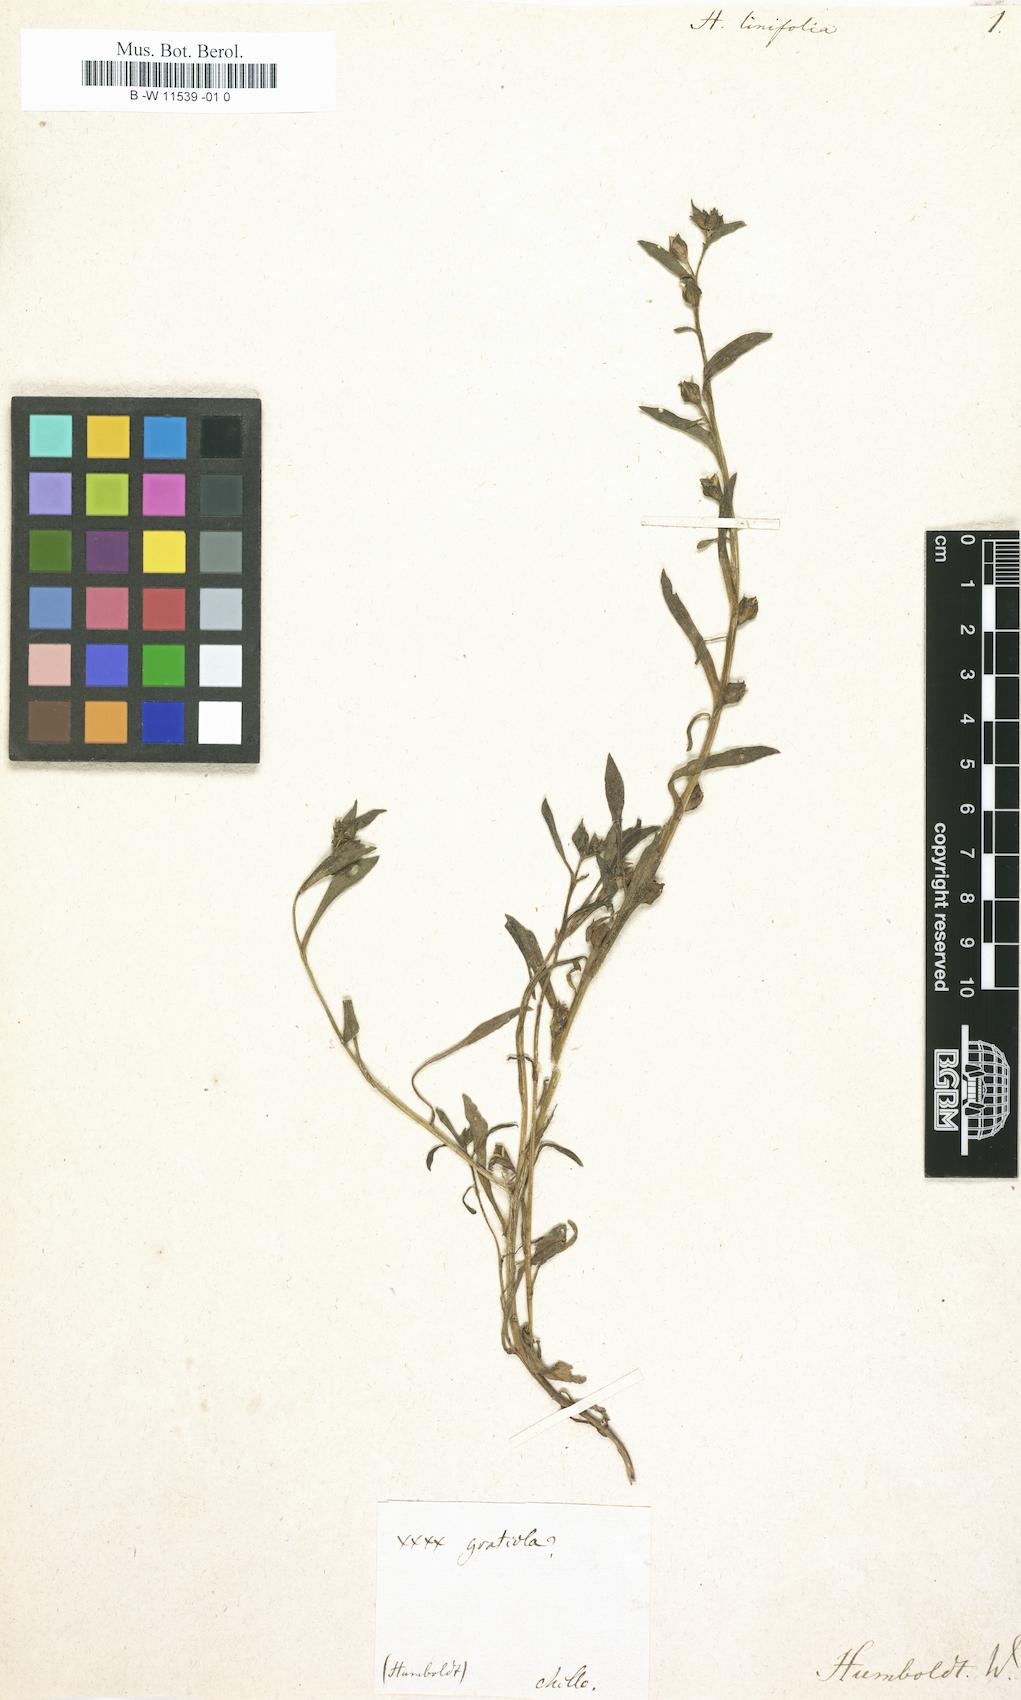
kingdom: Plantae
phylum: Tracheophyta
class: Magnoliopsida
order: Lamiales
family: Plantaginaceae
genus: Bacopa
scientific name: Bacopa
